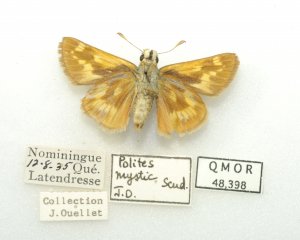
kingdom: Animalia
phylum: Arthropoda
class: Insecta
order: Lepidoptera
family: Hesperiidae
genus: Polites
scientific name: Polites
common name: Long Dash Skipper
